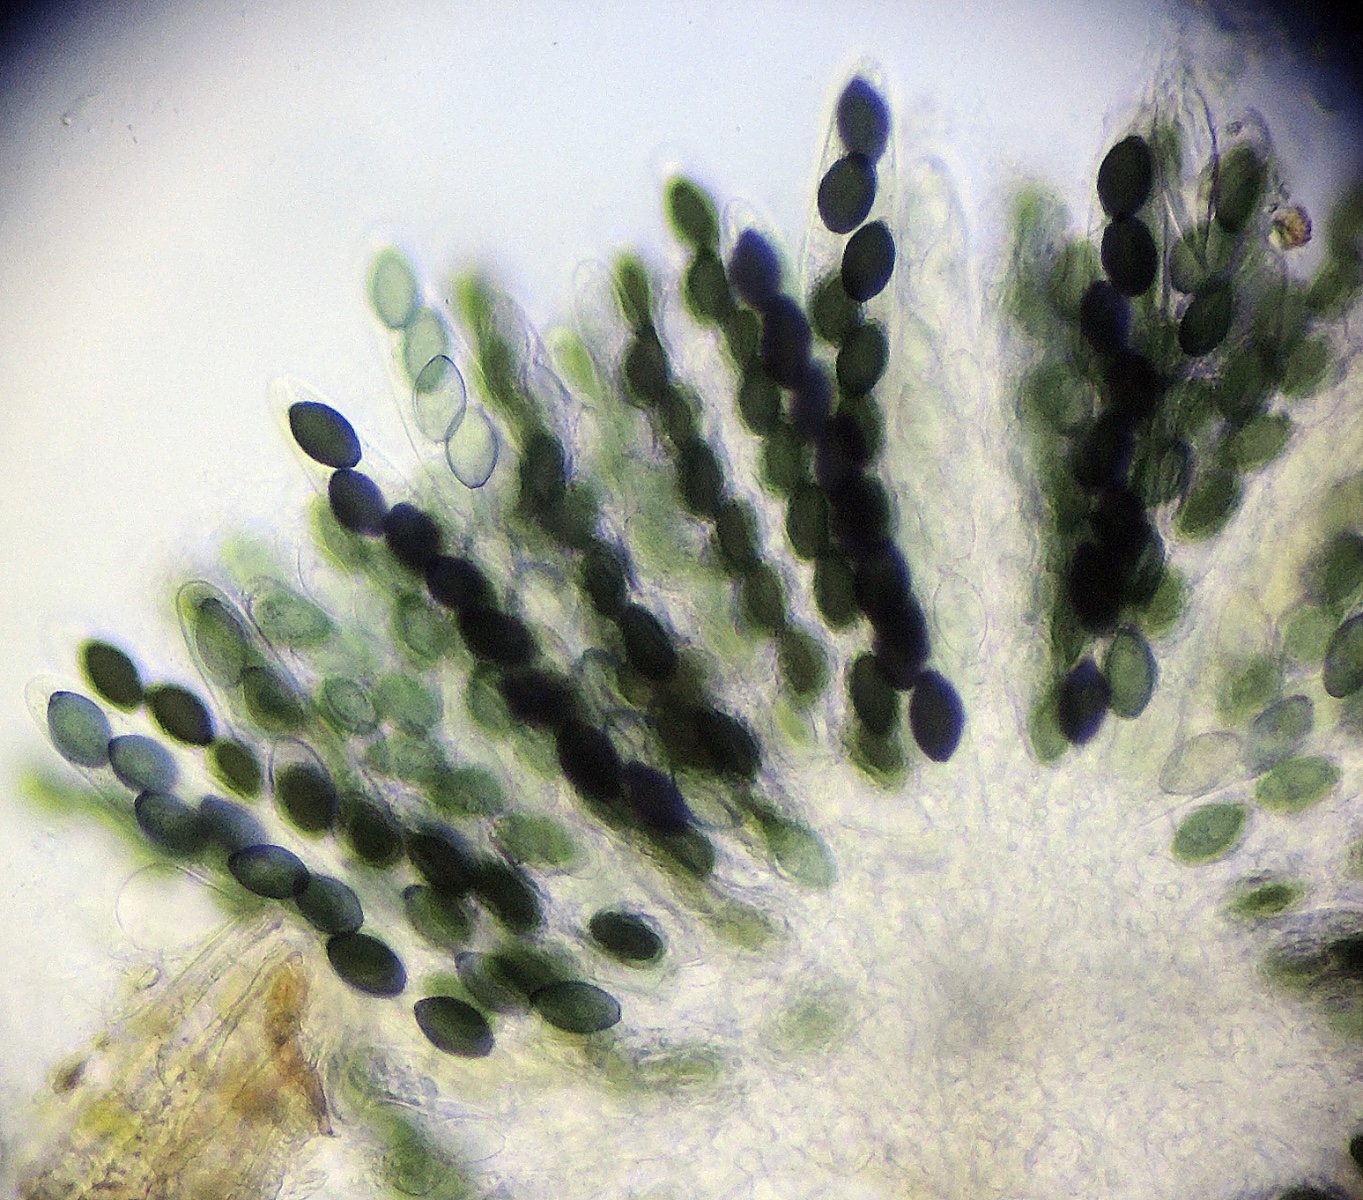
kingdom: Fungi
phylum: Ascomycota
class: Sordariomycetes
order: Sordariales
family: Lasiosphaeriaceae
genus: Schizothecium
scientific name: Schizothecium vesticola
